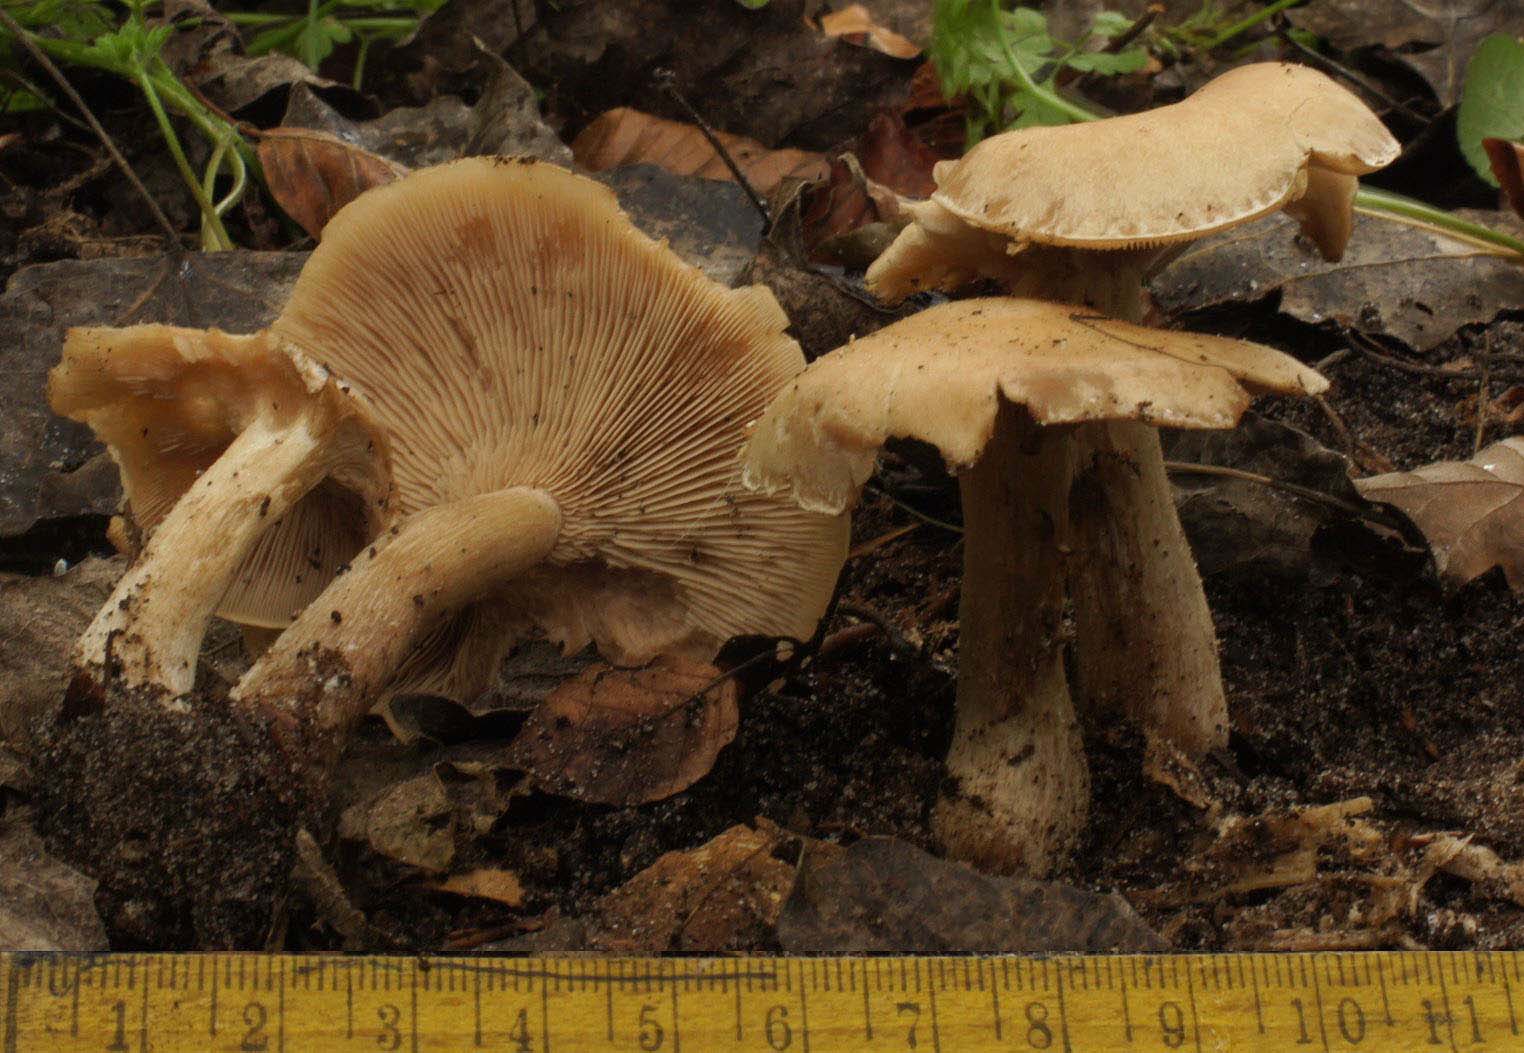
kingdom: Fungi
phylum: Basidiomycota
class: Agaricomycetes
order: Agaricales
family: Tricholomataceae
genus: Lepista
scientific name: Lepista personata
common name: bleg hekseringshat
